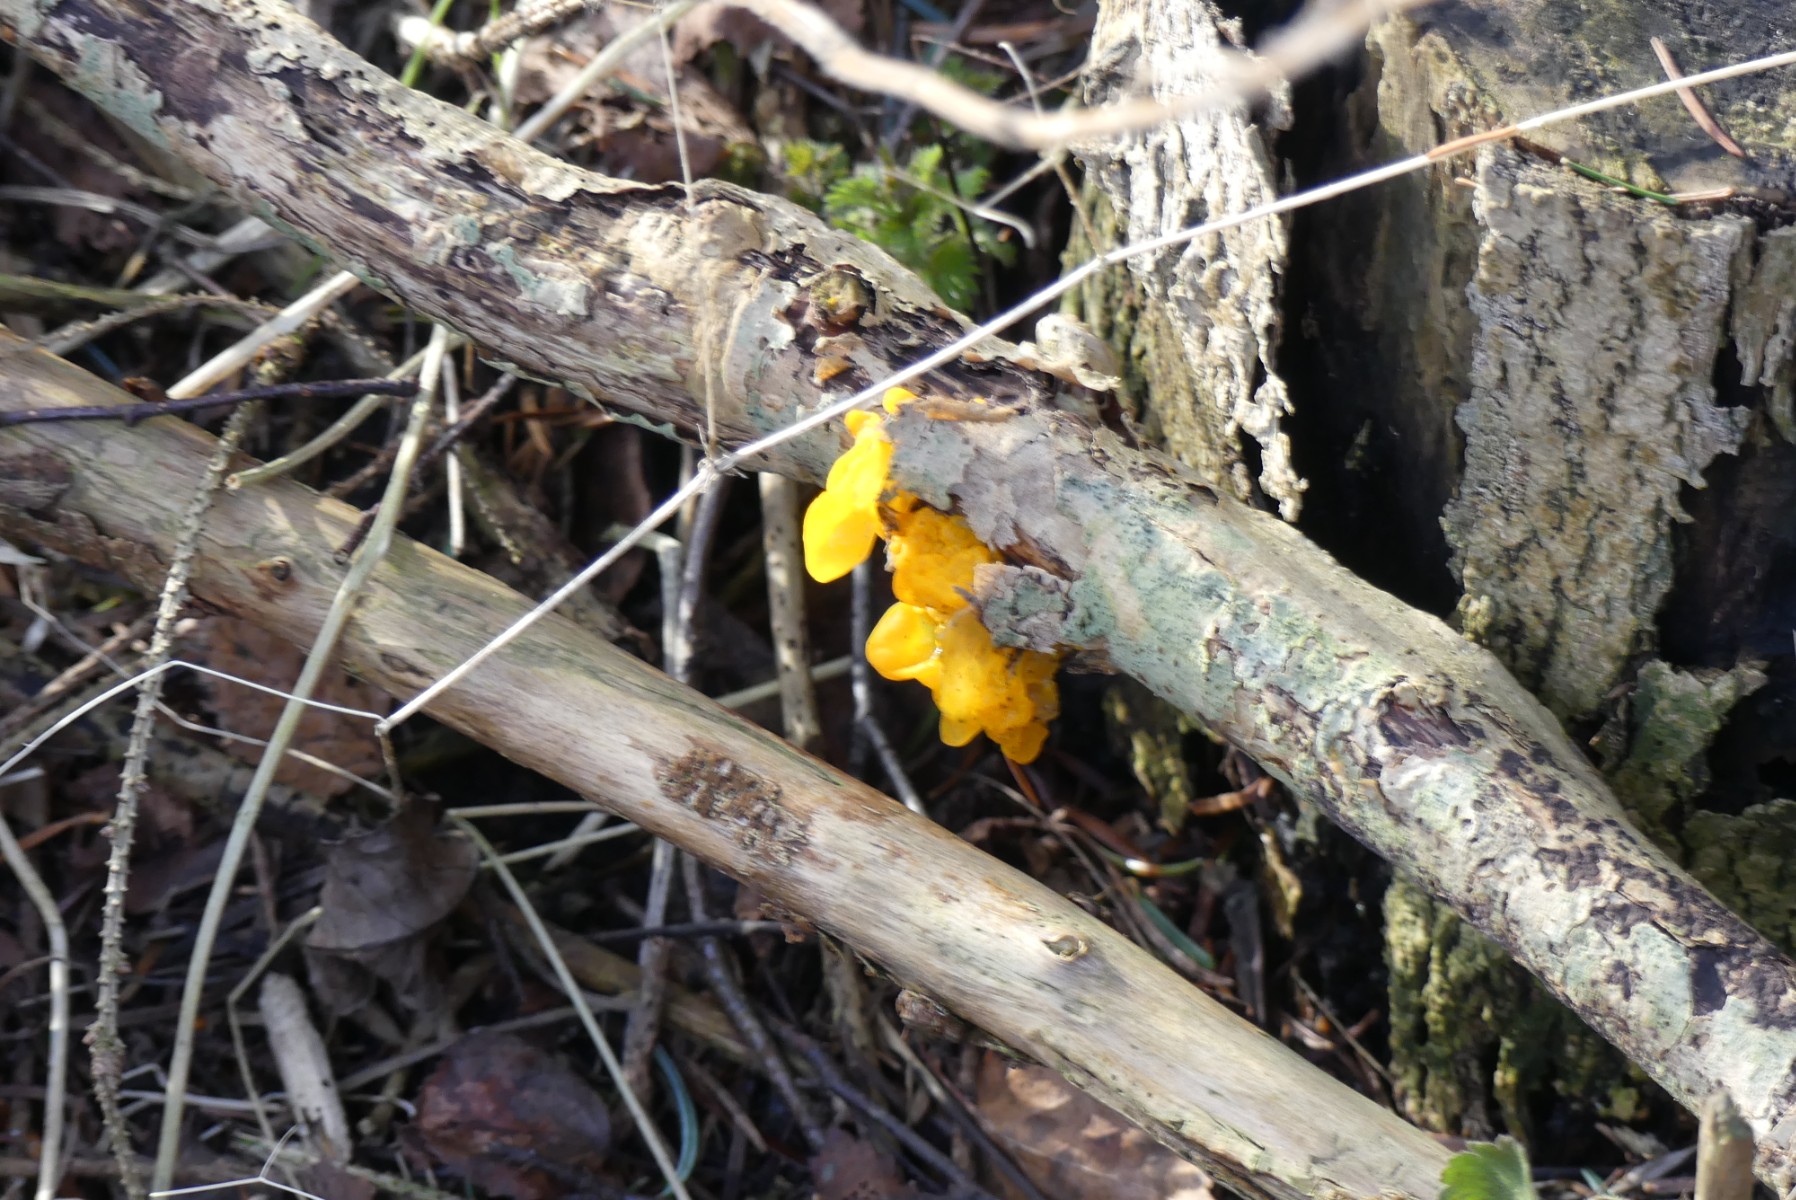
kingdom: Fungi
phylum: Basidiomycota
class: Tremellomycetes
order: Tremellales
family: Tremellaceae
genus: Tremella
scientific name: Tremella mesenterica
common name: gul bævresvamp
